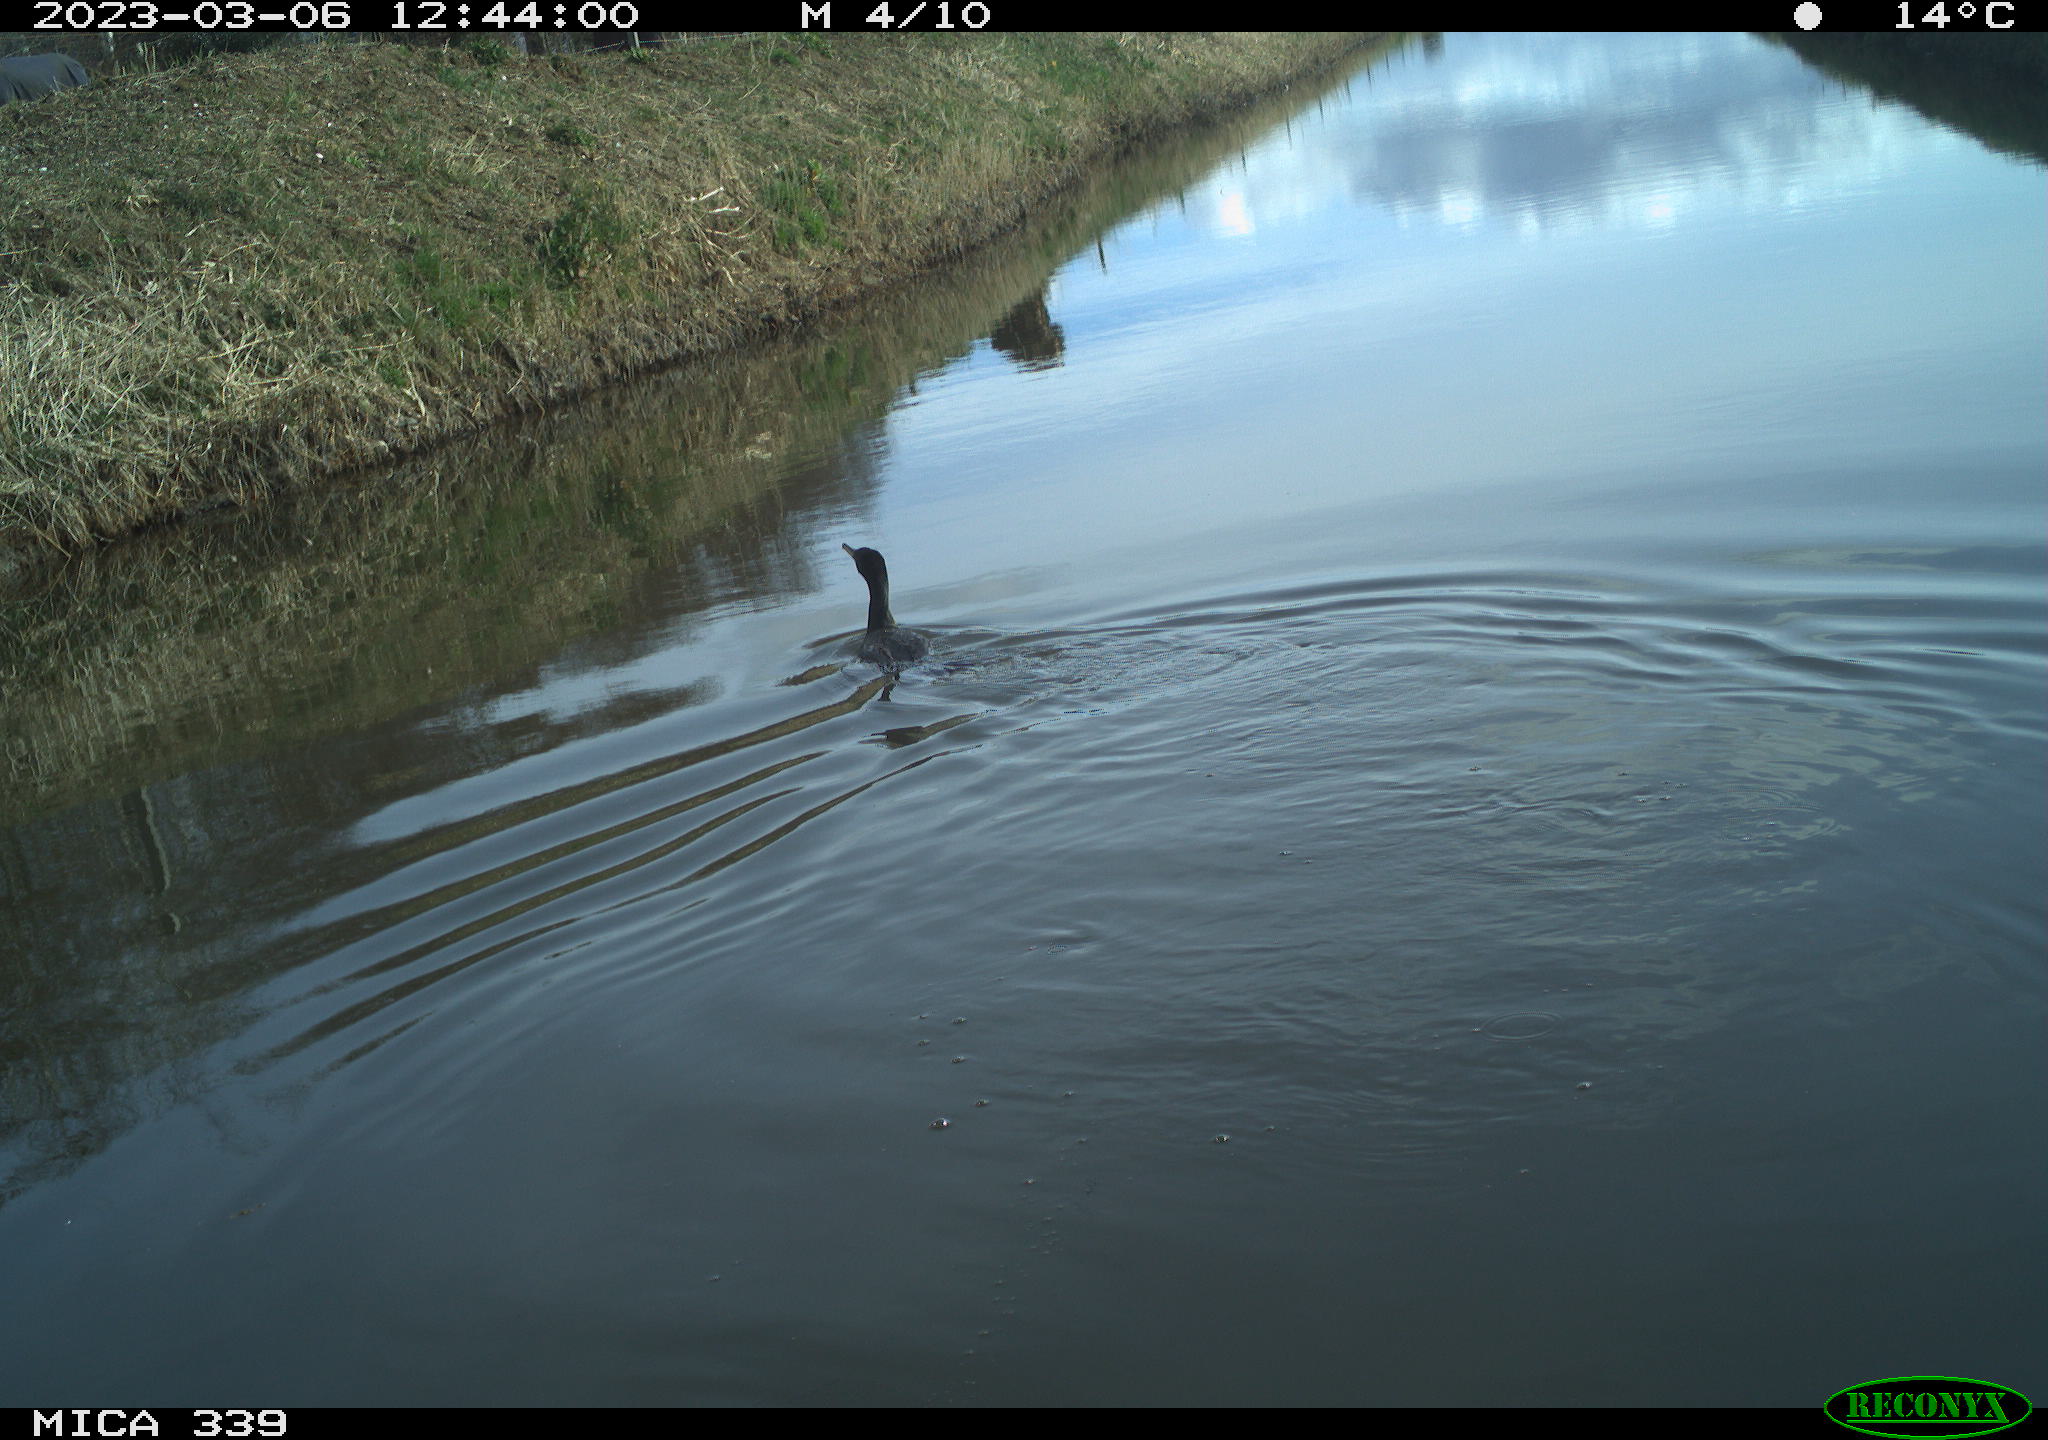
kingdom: Animalia
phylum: Chordata
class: Aves
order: Suliformes
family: Phalacrocoracidae
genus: Phalacrocorax
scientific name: Phalacrocorax carbo
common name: Great cormorant
